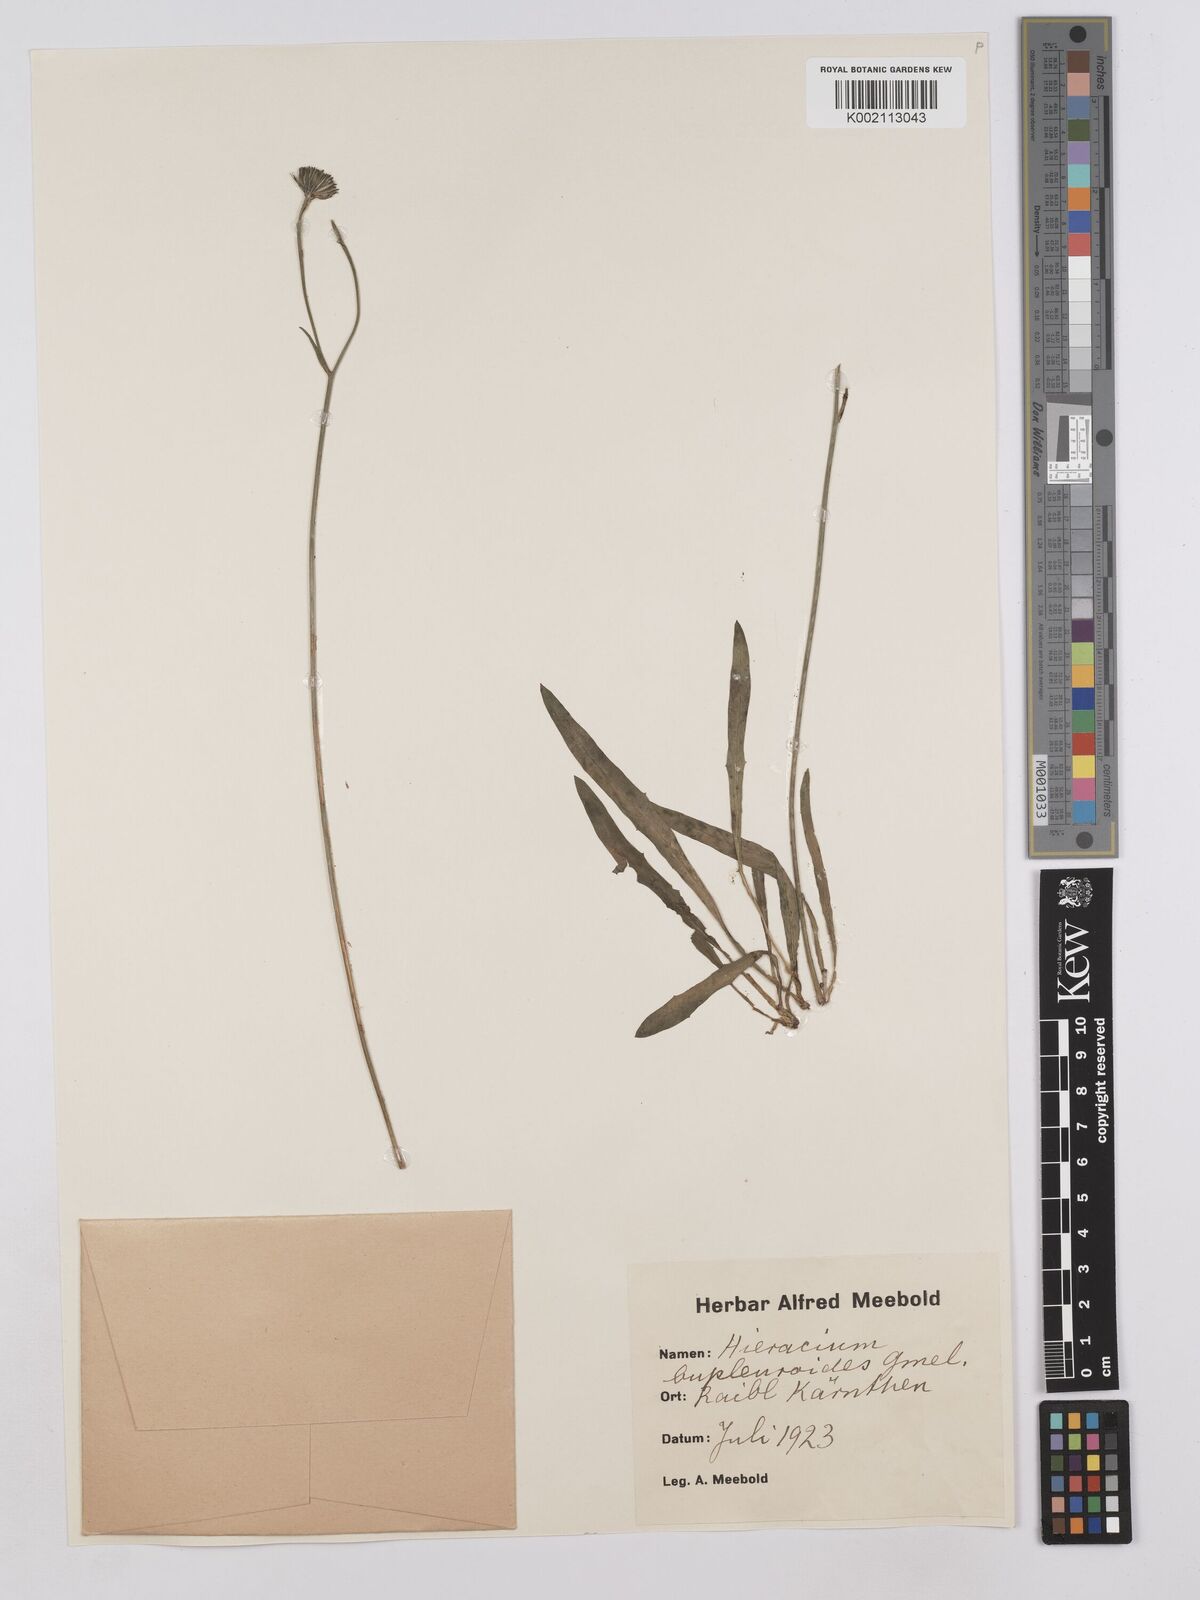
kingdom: Plantae
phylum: Tracheophyta
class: Magnoliopsida
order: Asterales
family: Asteraceae
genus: Hieracium
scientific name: Hieracium bupleuroides
